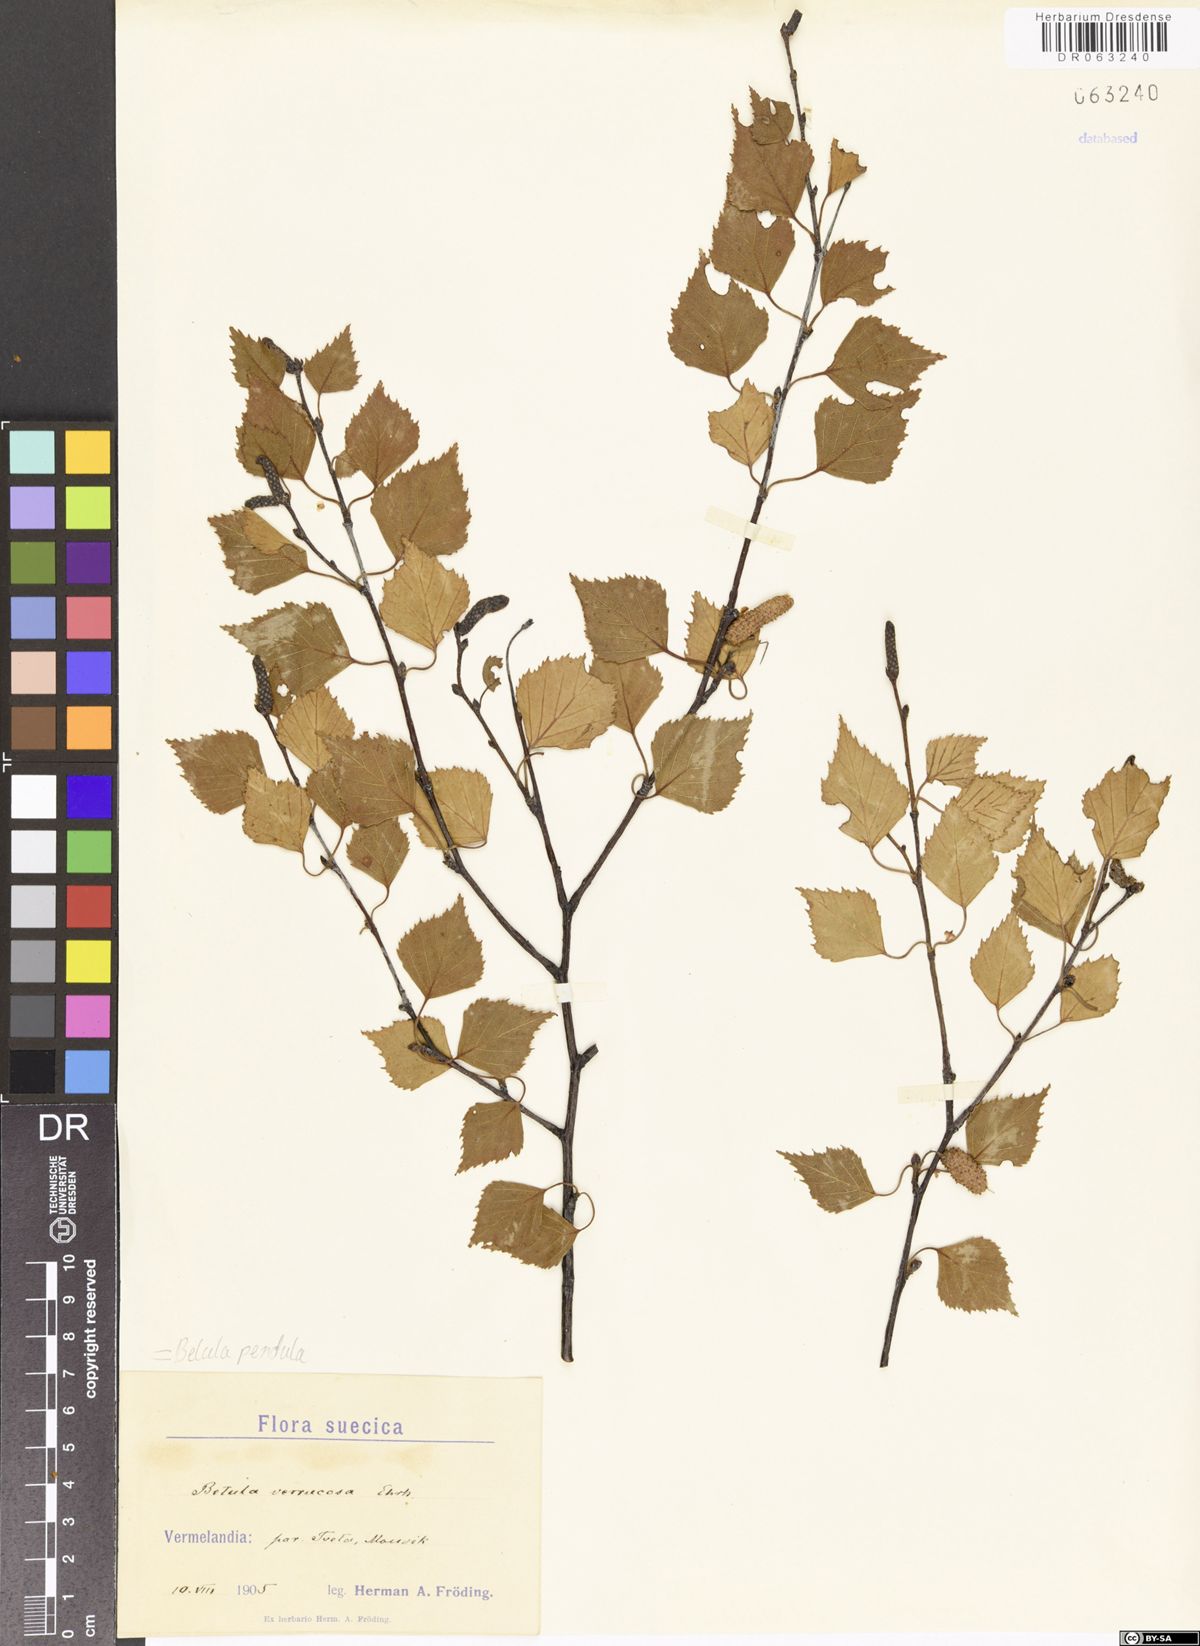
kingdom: Plantae
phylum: Tracheophyta
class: Magnoliopsida
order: Fagales
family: Betulaceae
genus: Betula
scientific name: Betula pendula
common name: Silver birch
